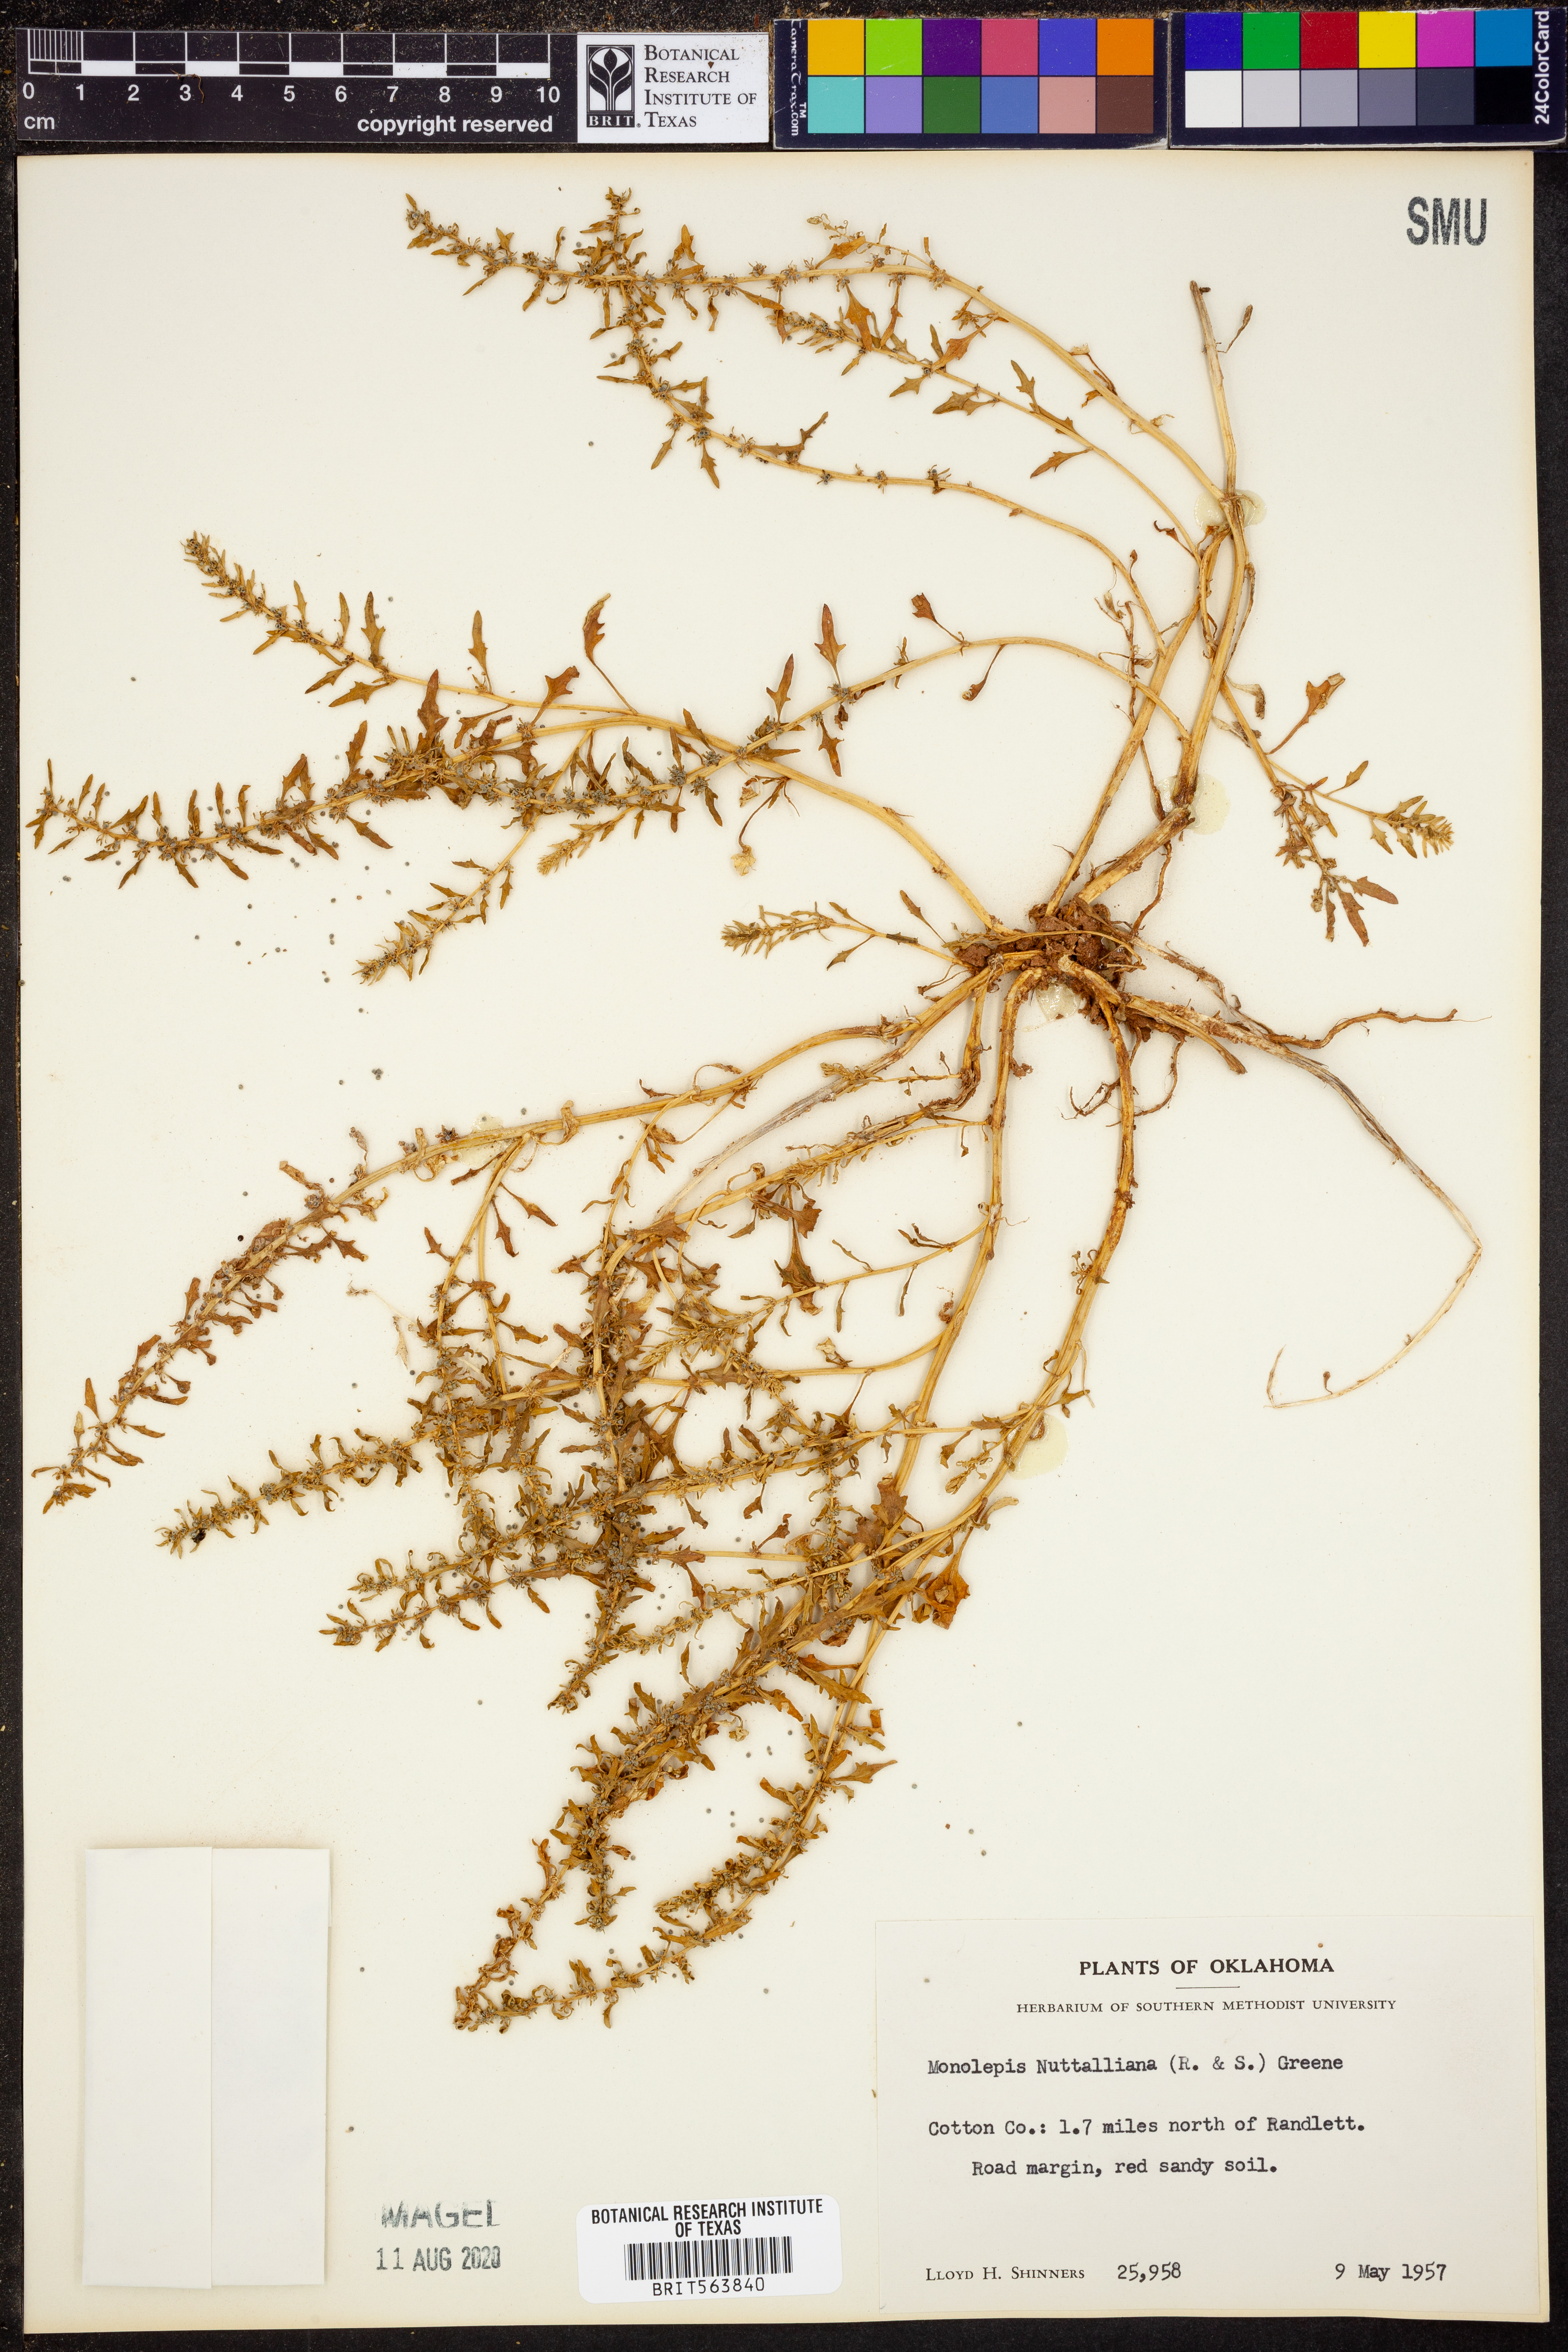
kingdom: Plantae
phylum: Tracheophyta
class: Magnoliopsida
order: Caryophyllales
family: Amaranthaceae
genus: Blitum
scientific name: Blitum nuttallianum
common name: Poverty-weed
